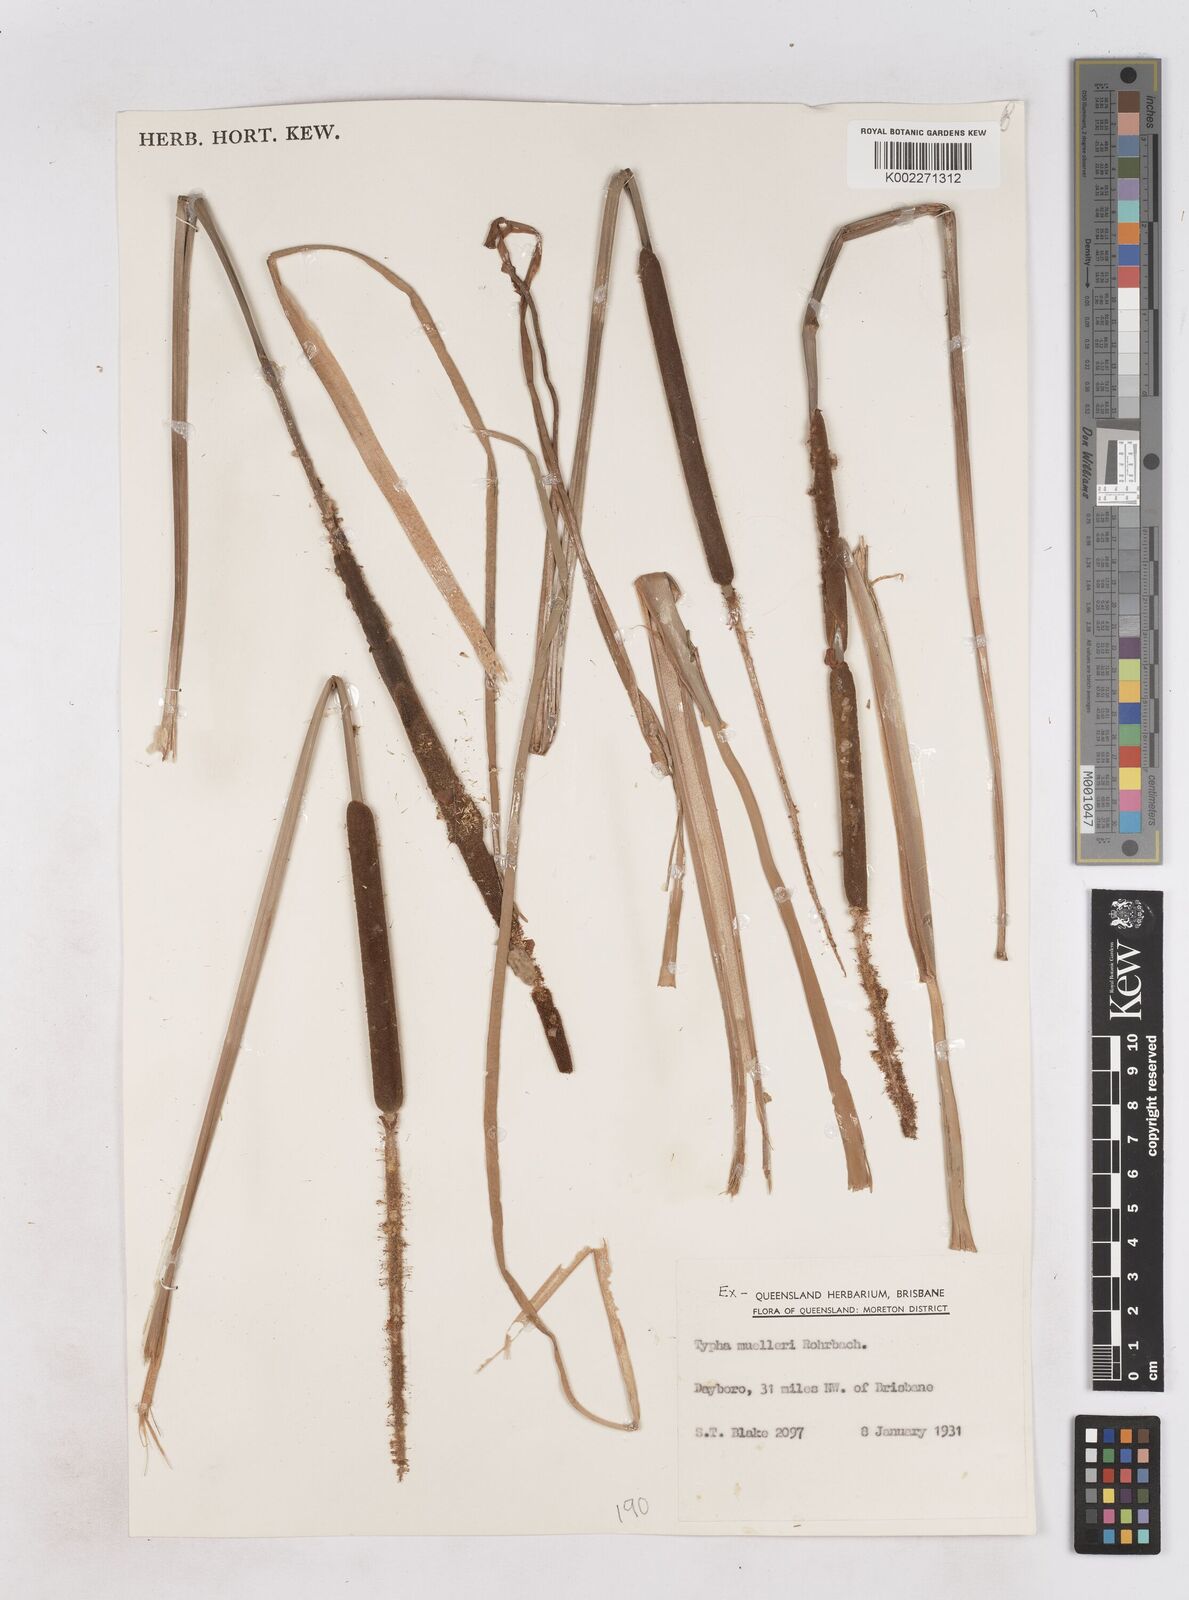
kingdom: Plantae
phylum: Tracheophyta
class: Liliopsida
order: Poales
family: Typhaceae
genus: Typha
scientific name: Typha orientalis
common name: Bullrush
